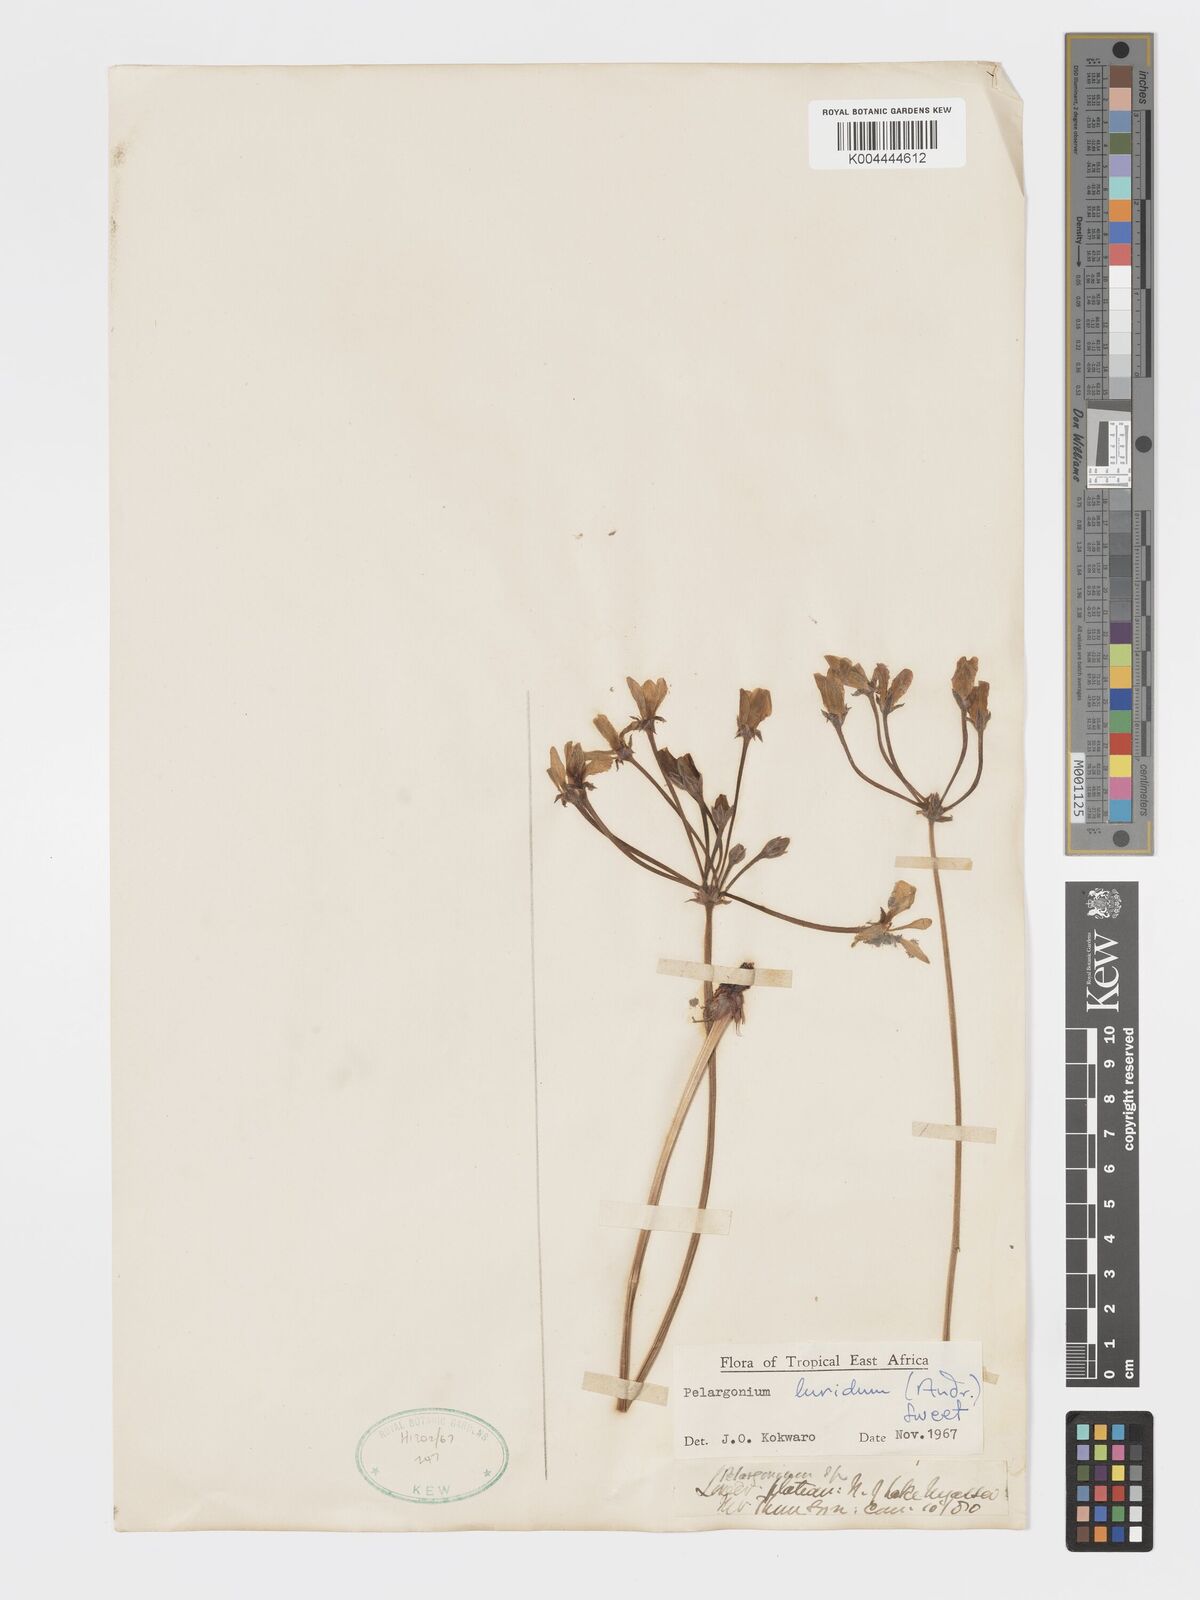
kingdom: Plantae
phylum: Tracheophyta
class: Magnoliopsida
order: Geraniales
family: Geraniaceae
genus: Pelargonium
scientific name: Pelargonium luridum
